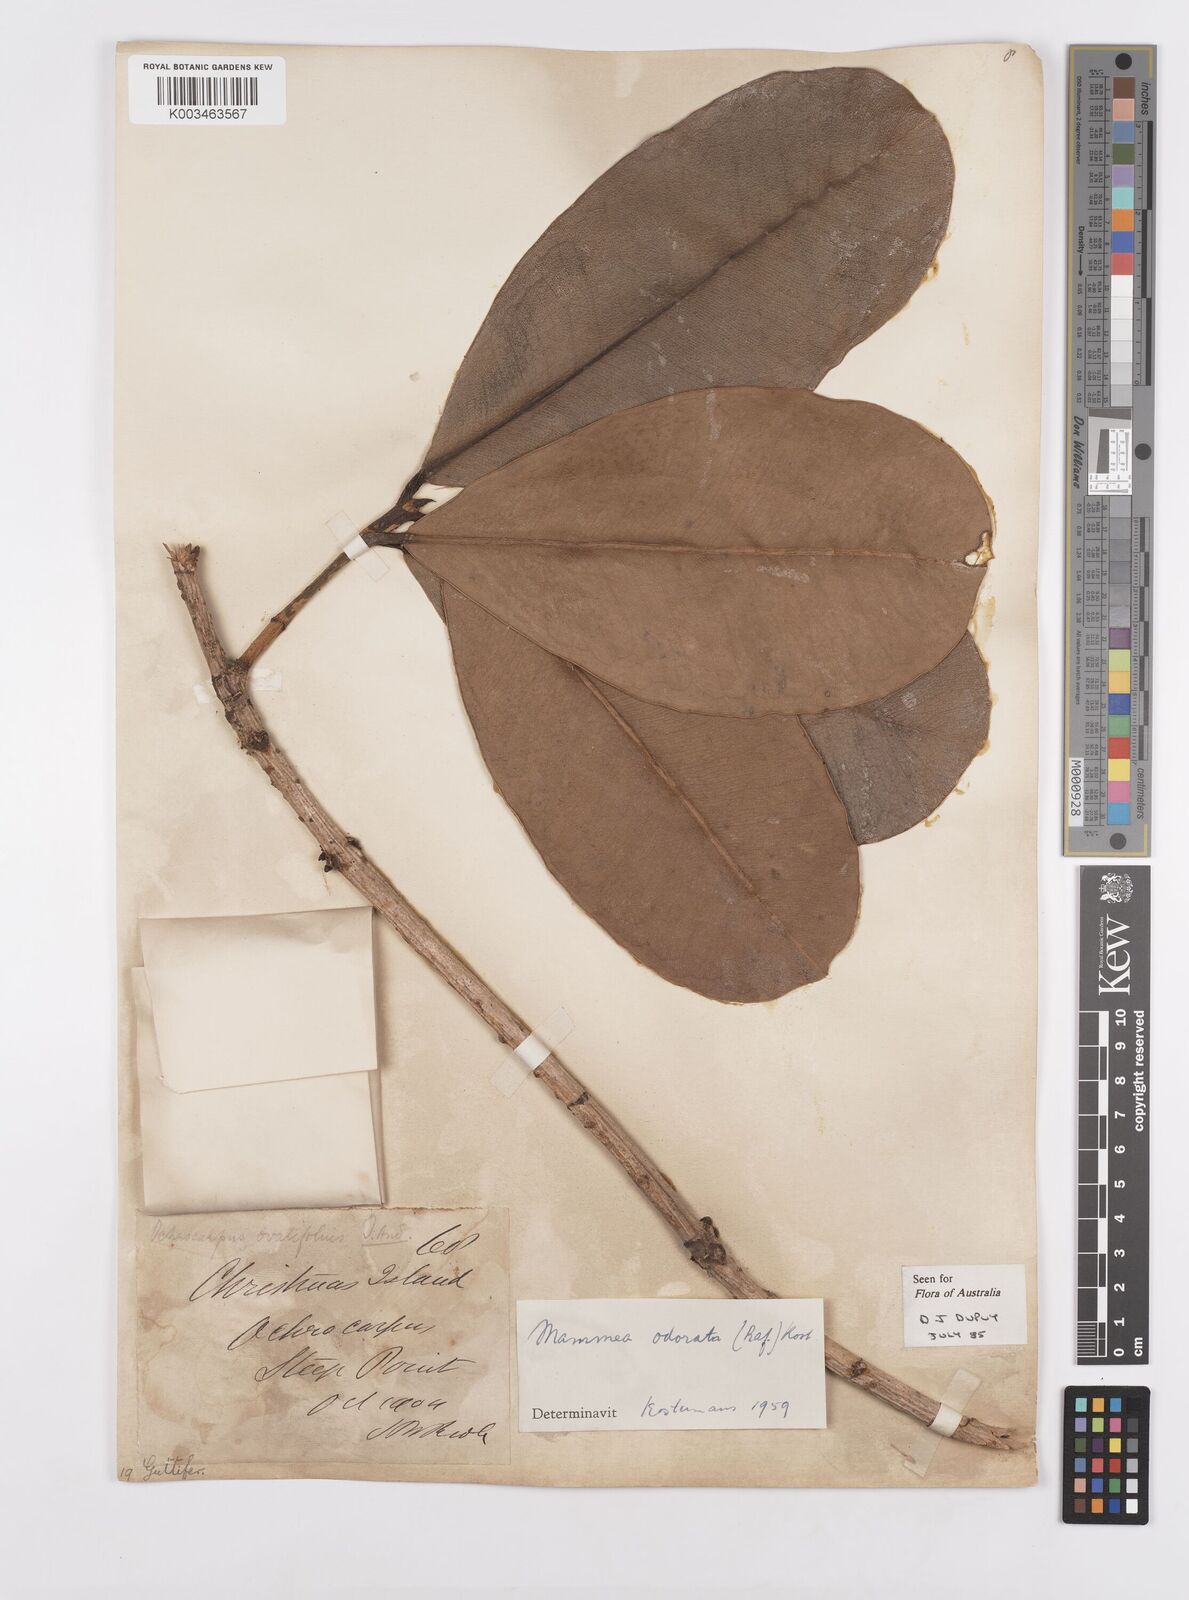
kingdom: Plantae
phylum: Tracheophyta
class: Magnoliopsida
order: Malpighiales
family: Calophyllaceae
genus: Mammea
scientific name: Mammea odorata
